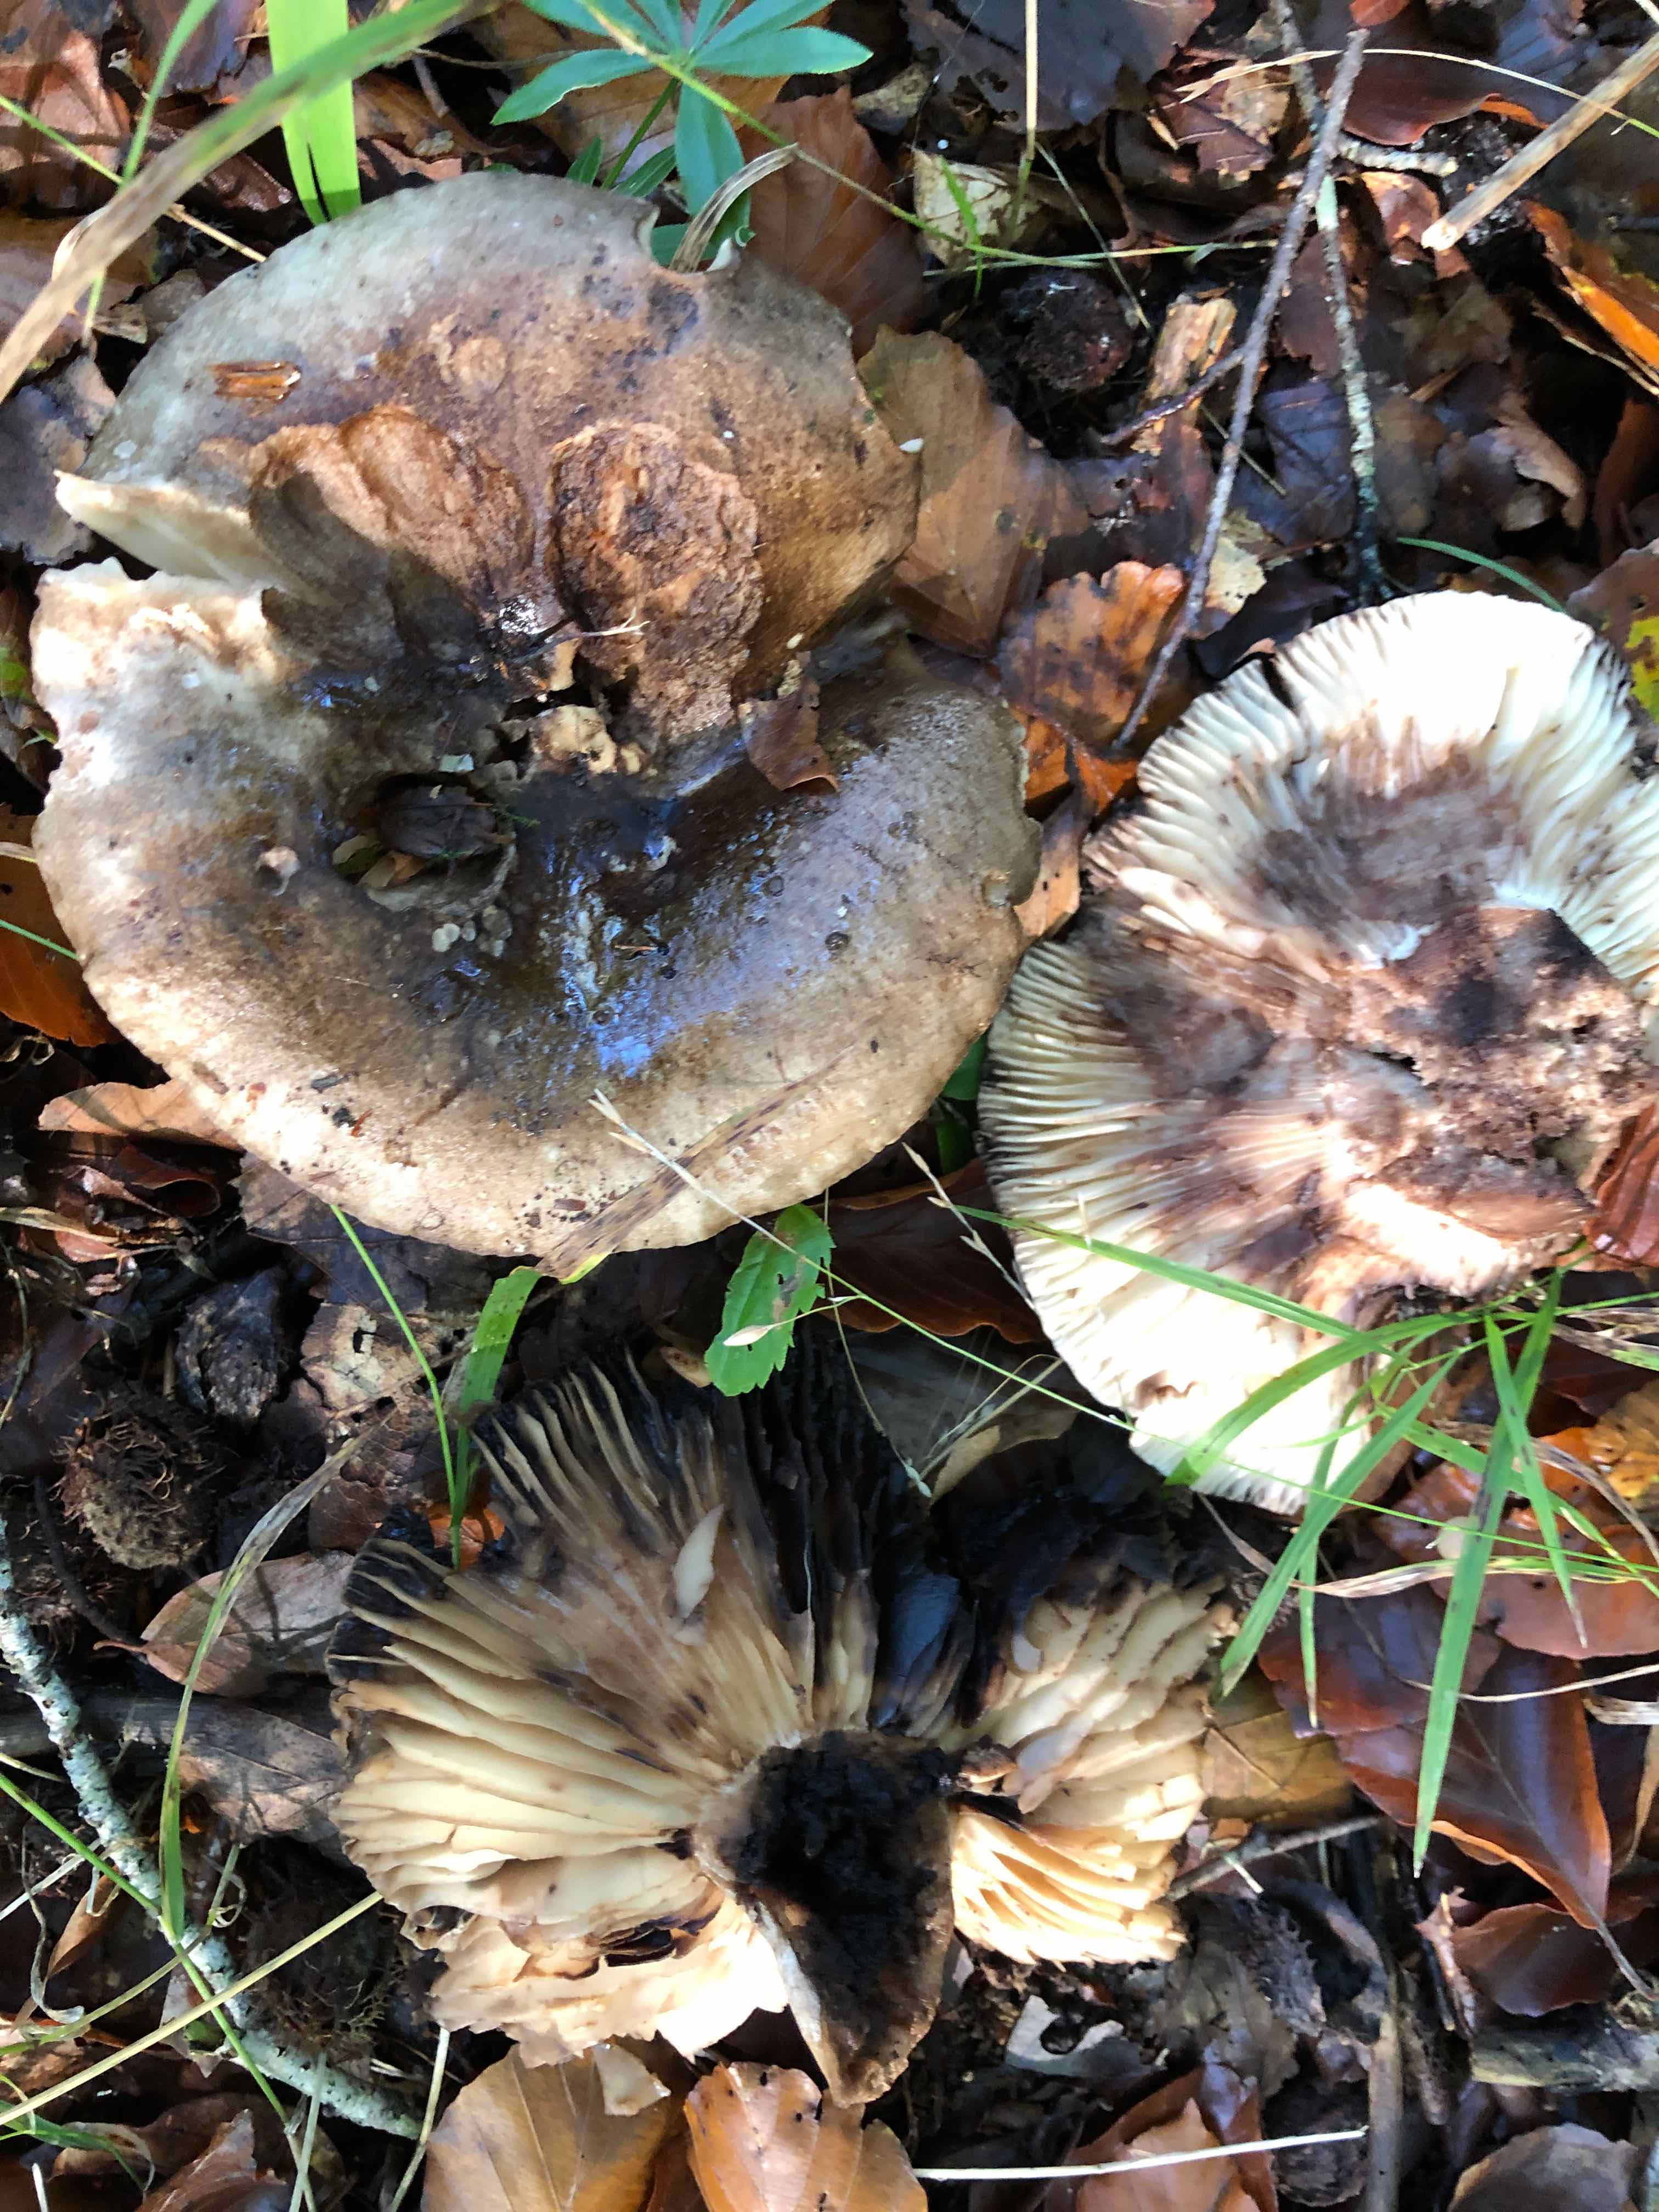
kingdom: Fungi
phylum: Basidiomycota
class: Agaricomycetes
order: Russulales
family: Russulaceae
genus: Russula
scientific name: Russula adusta
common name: sværtende skørhat
